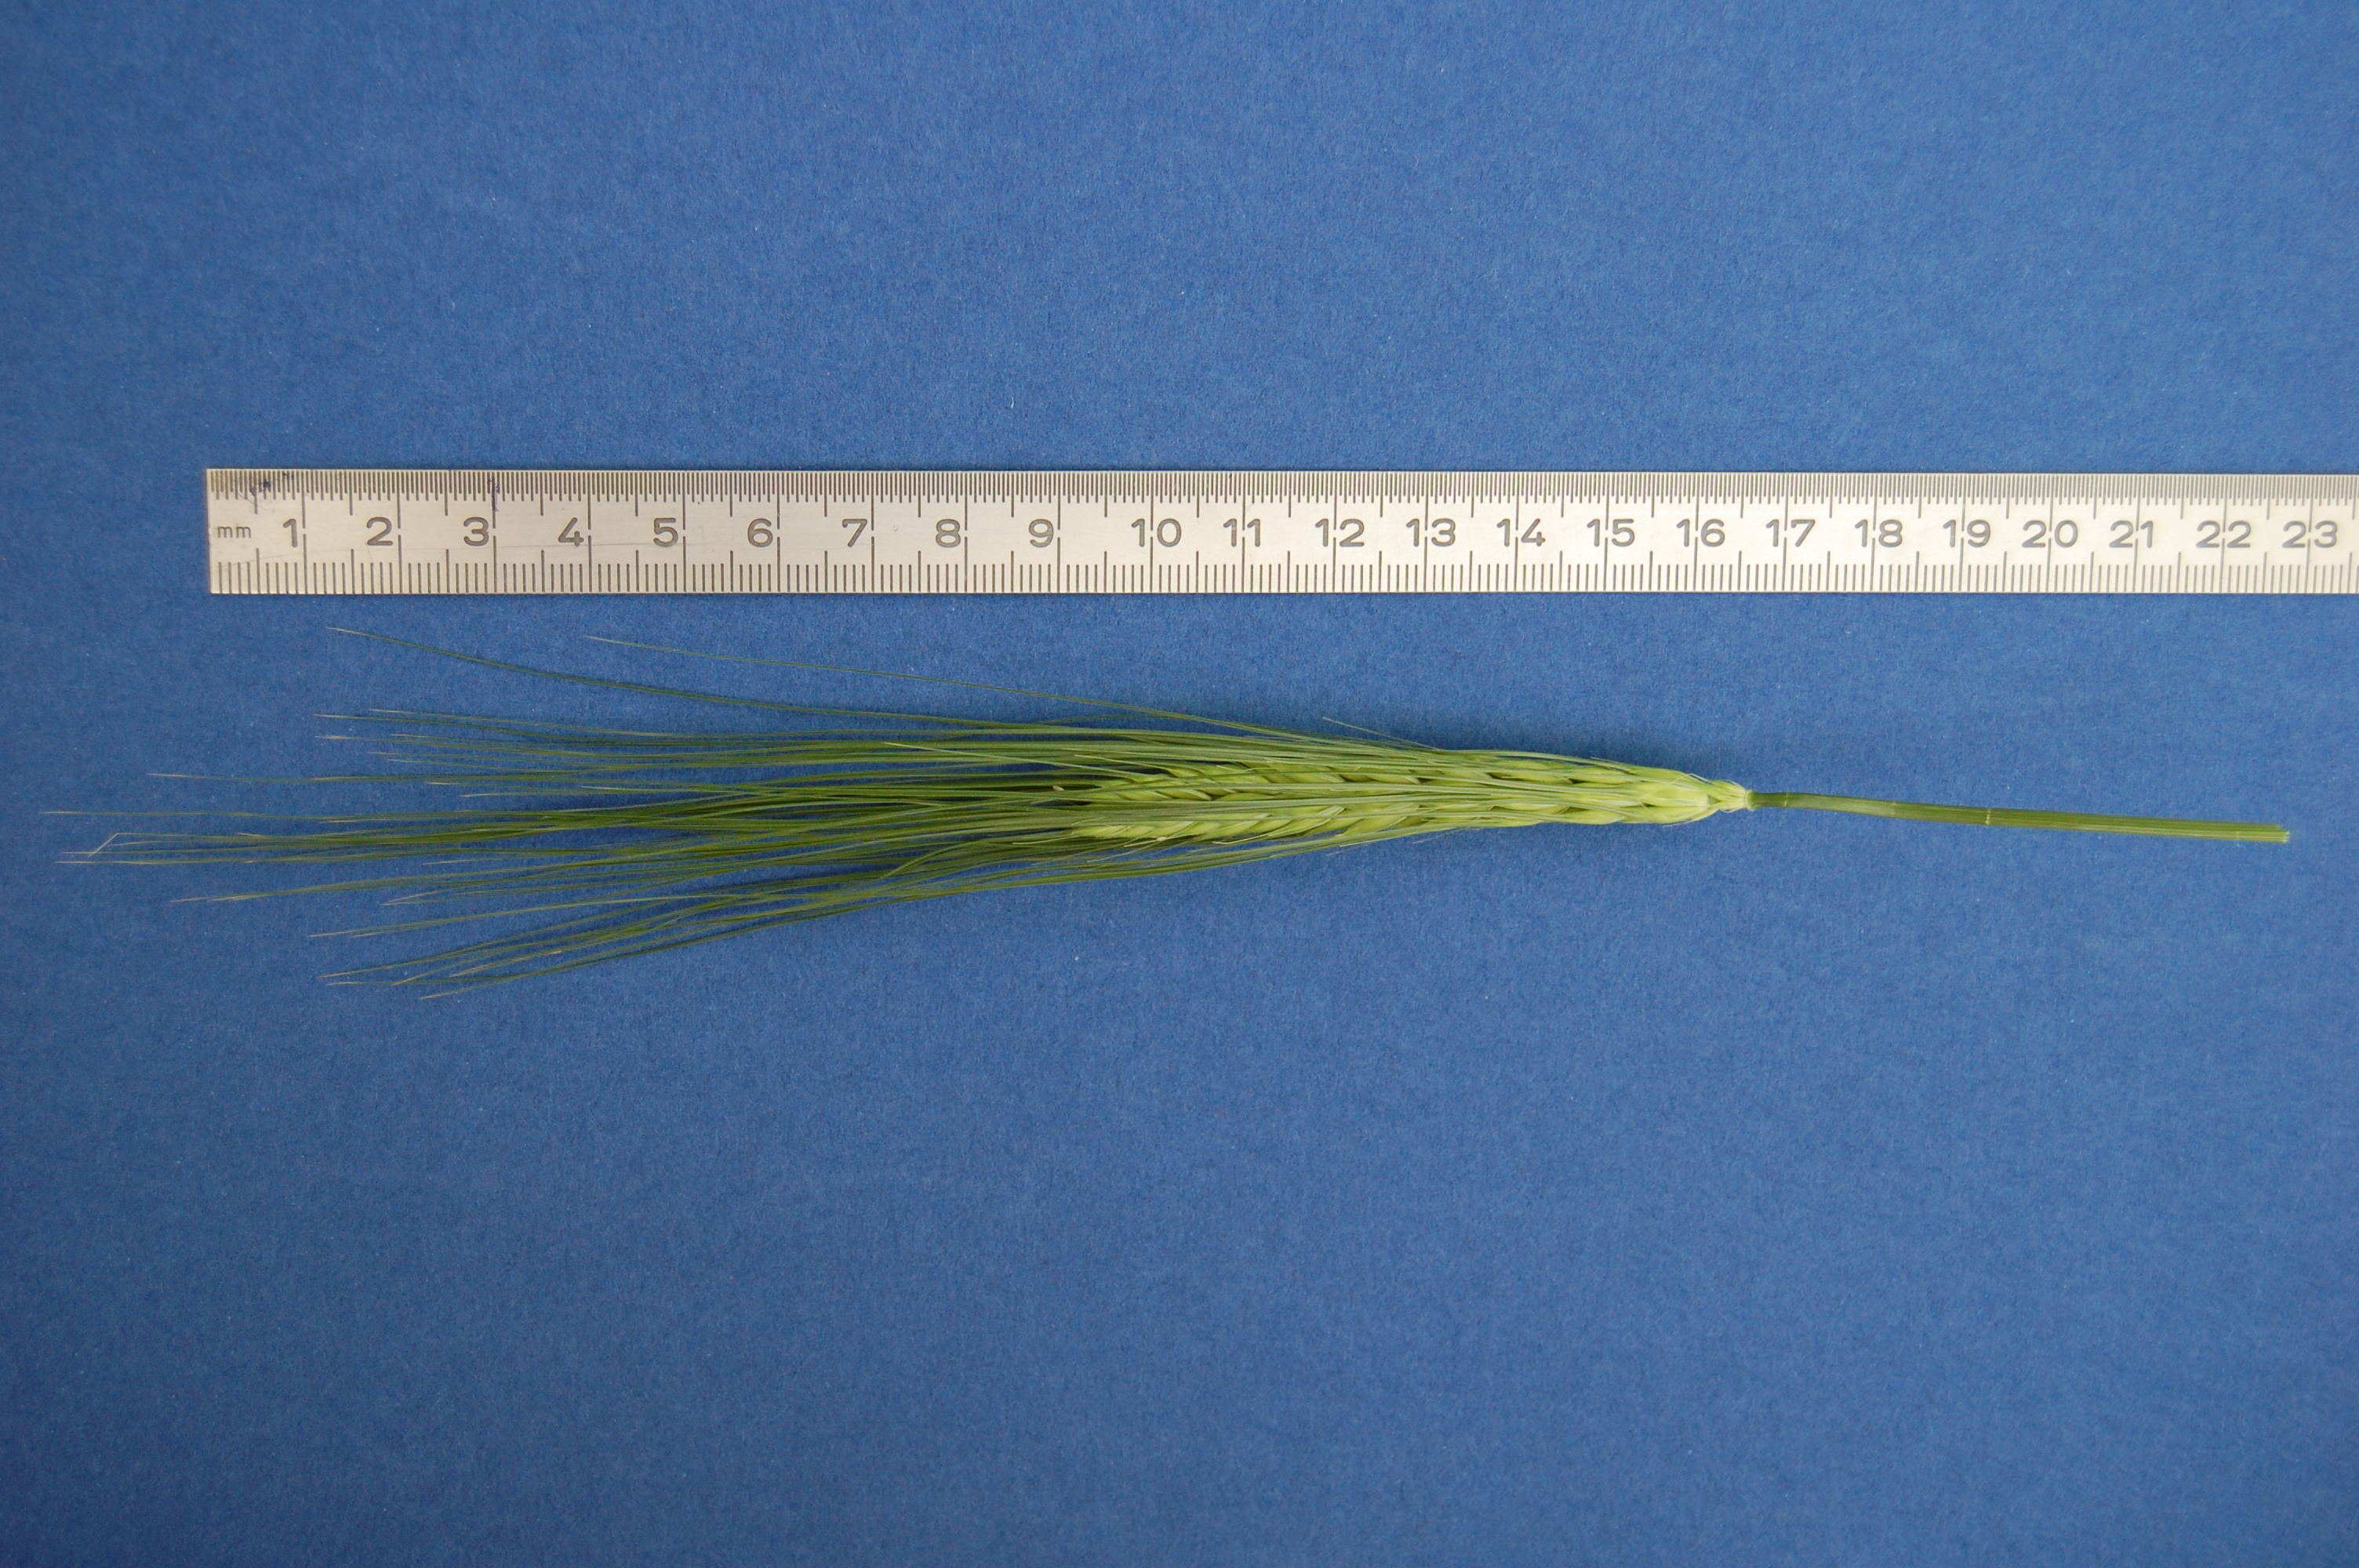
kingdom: Plantae
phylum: Tracheophyta
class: Liliopsida
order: Poales
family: Poaceae
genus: Hordeum
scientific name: Hordeum vulgare
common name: Common barley
